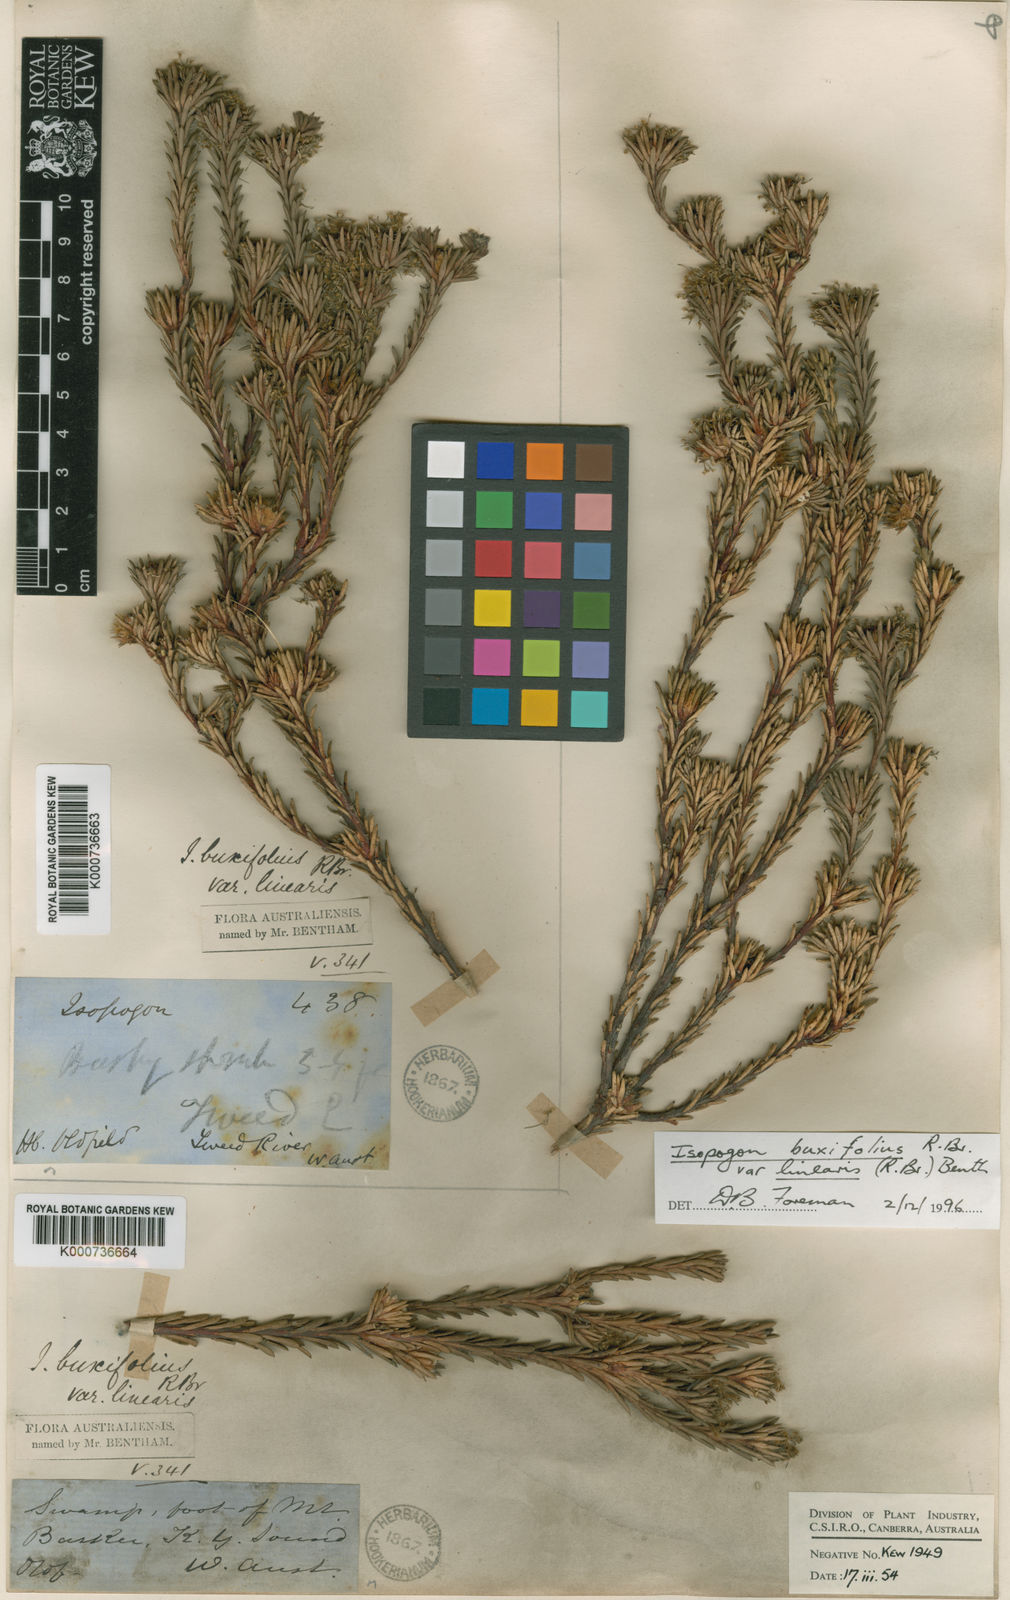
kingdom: Plantae
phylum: Tracheophyta
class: Magnoliopsida
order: Proteales
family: Proteaceae
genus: Isopogon
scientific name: Isopogon buxifolius
